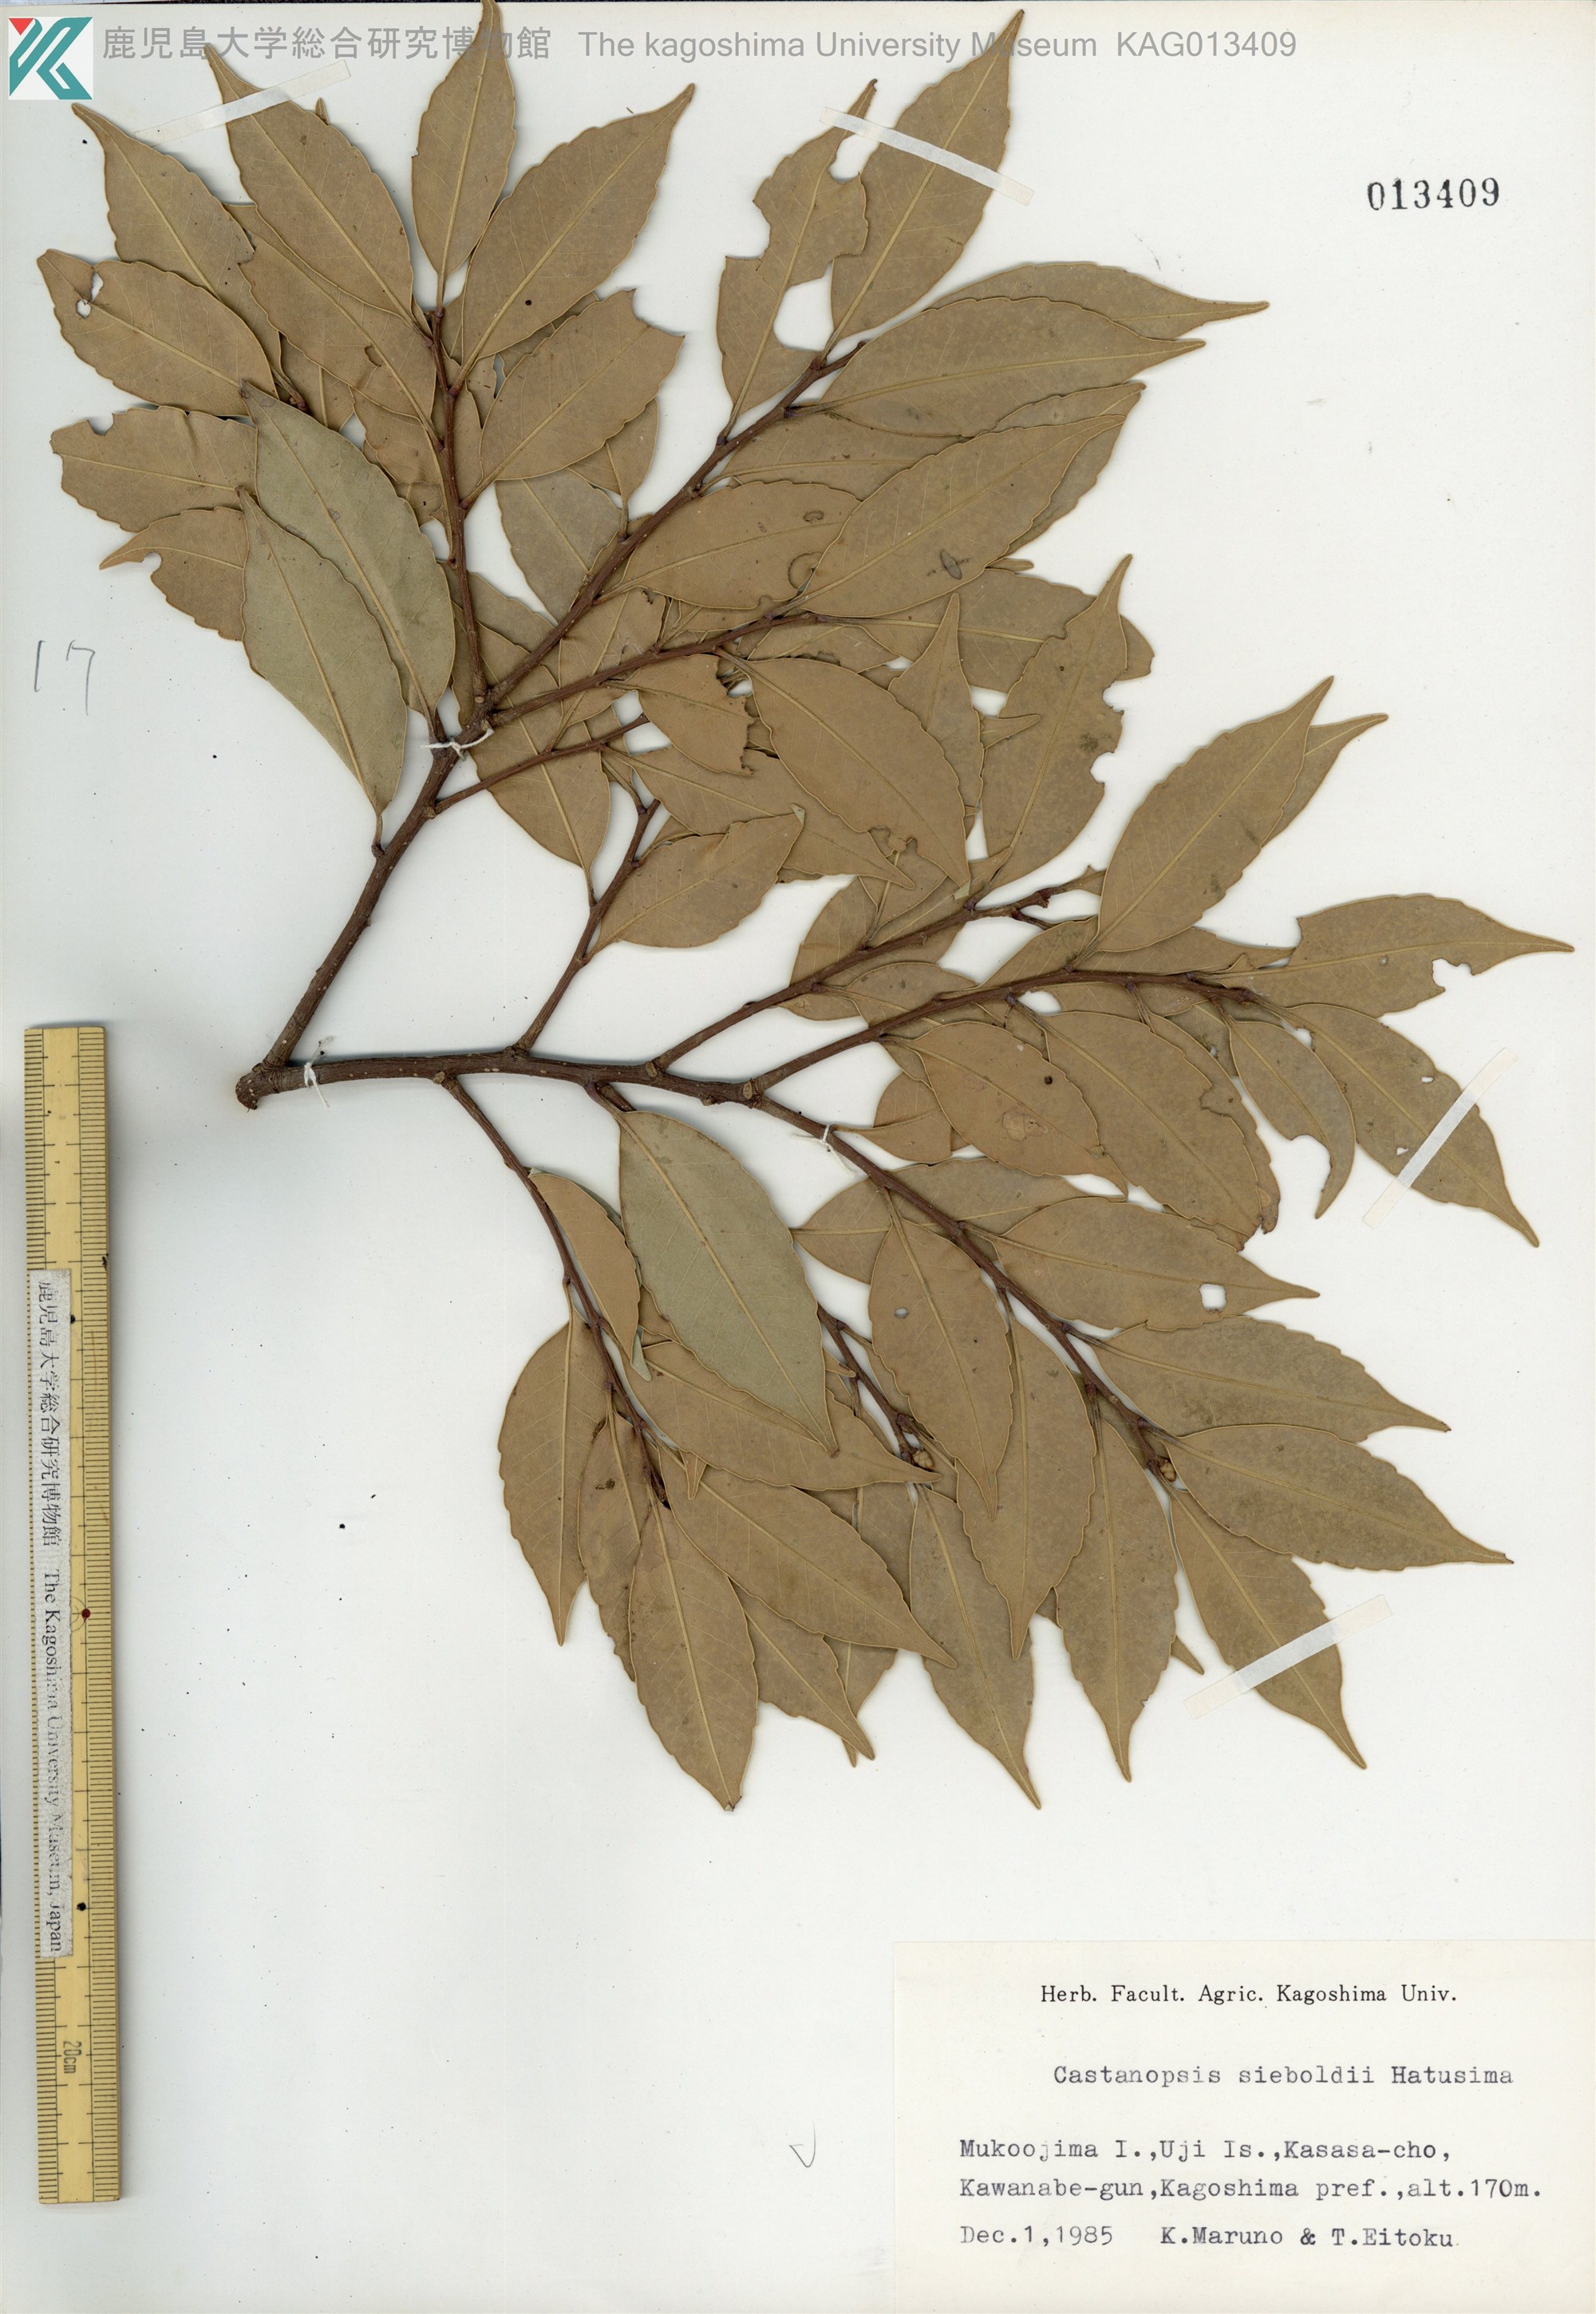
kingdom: Plantae
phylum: Tracheophyta
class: Magnoliopsida
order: Fagales
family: Fagaceae
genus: Castanopsis
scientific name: Castanopsis sieboldii
